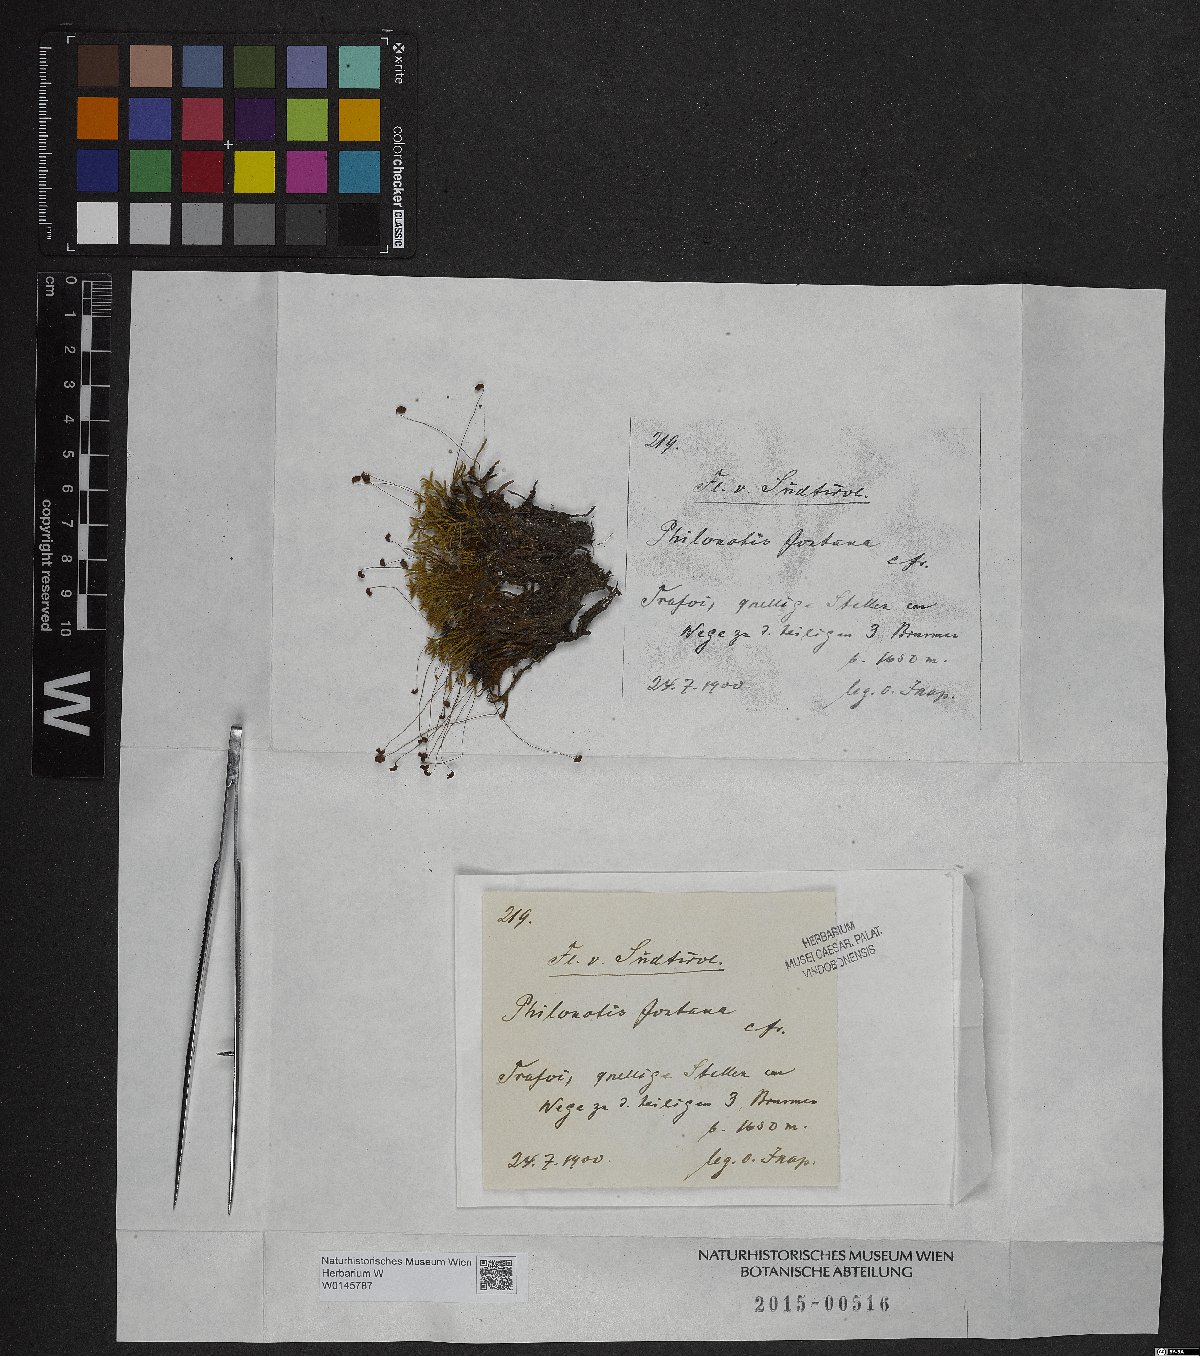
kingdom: Plantae
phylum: Bryophyta
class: Bryopsida
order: Bartramiales
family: Bartramiaceae
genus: Philonotis
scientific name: Philonotis fontana
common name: Fountain apple-moss
